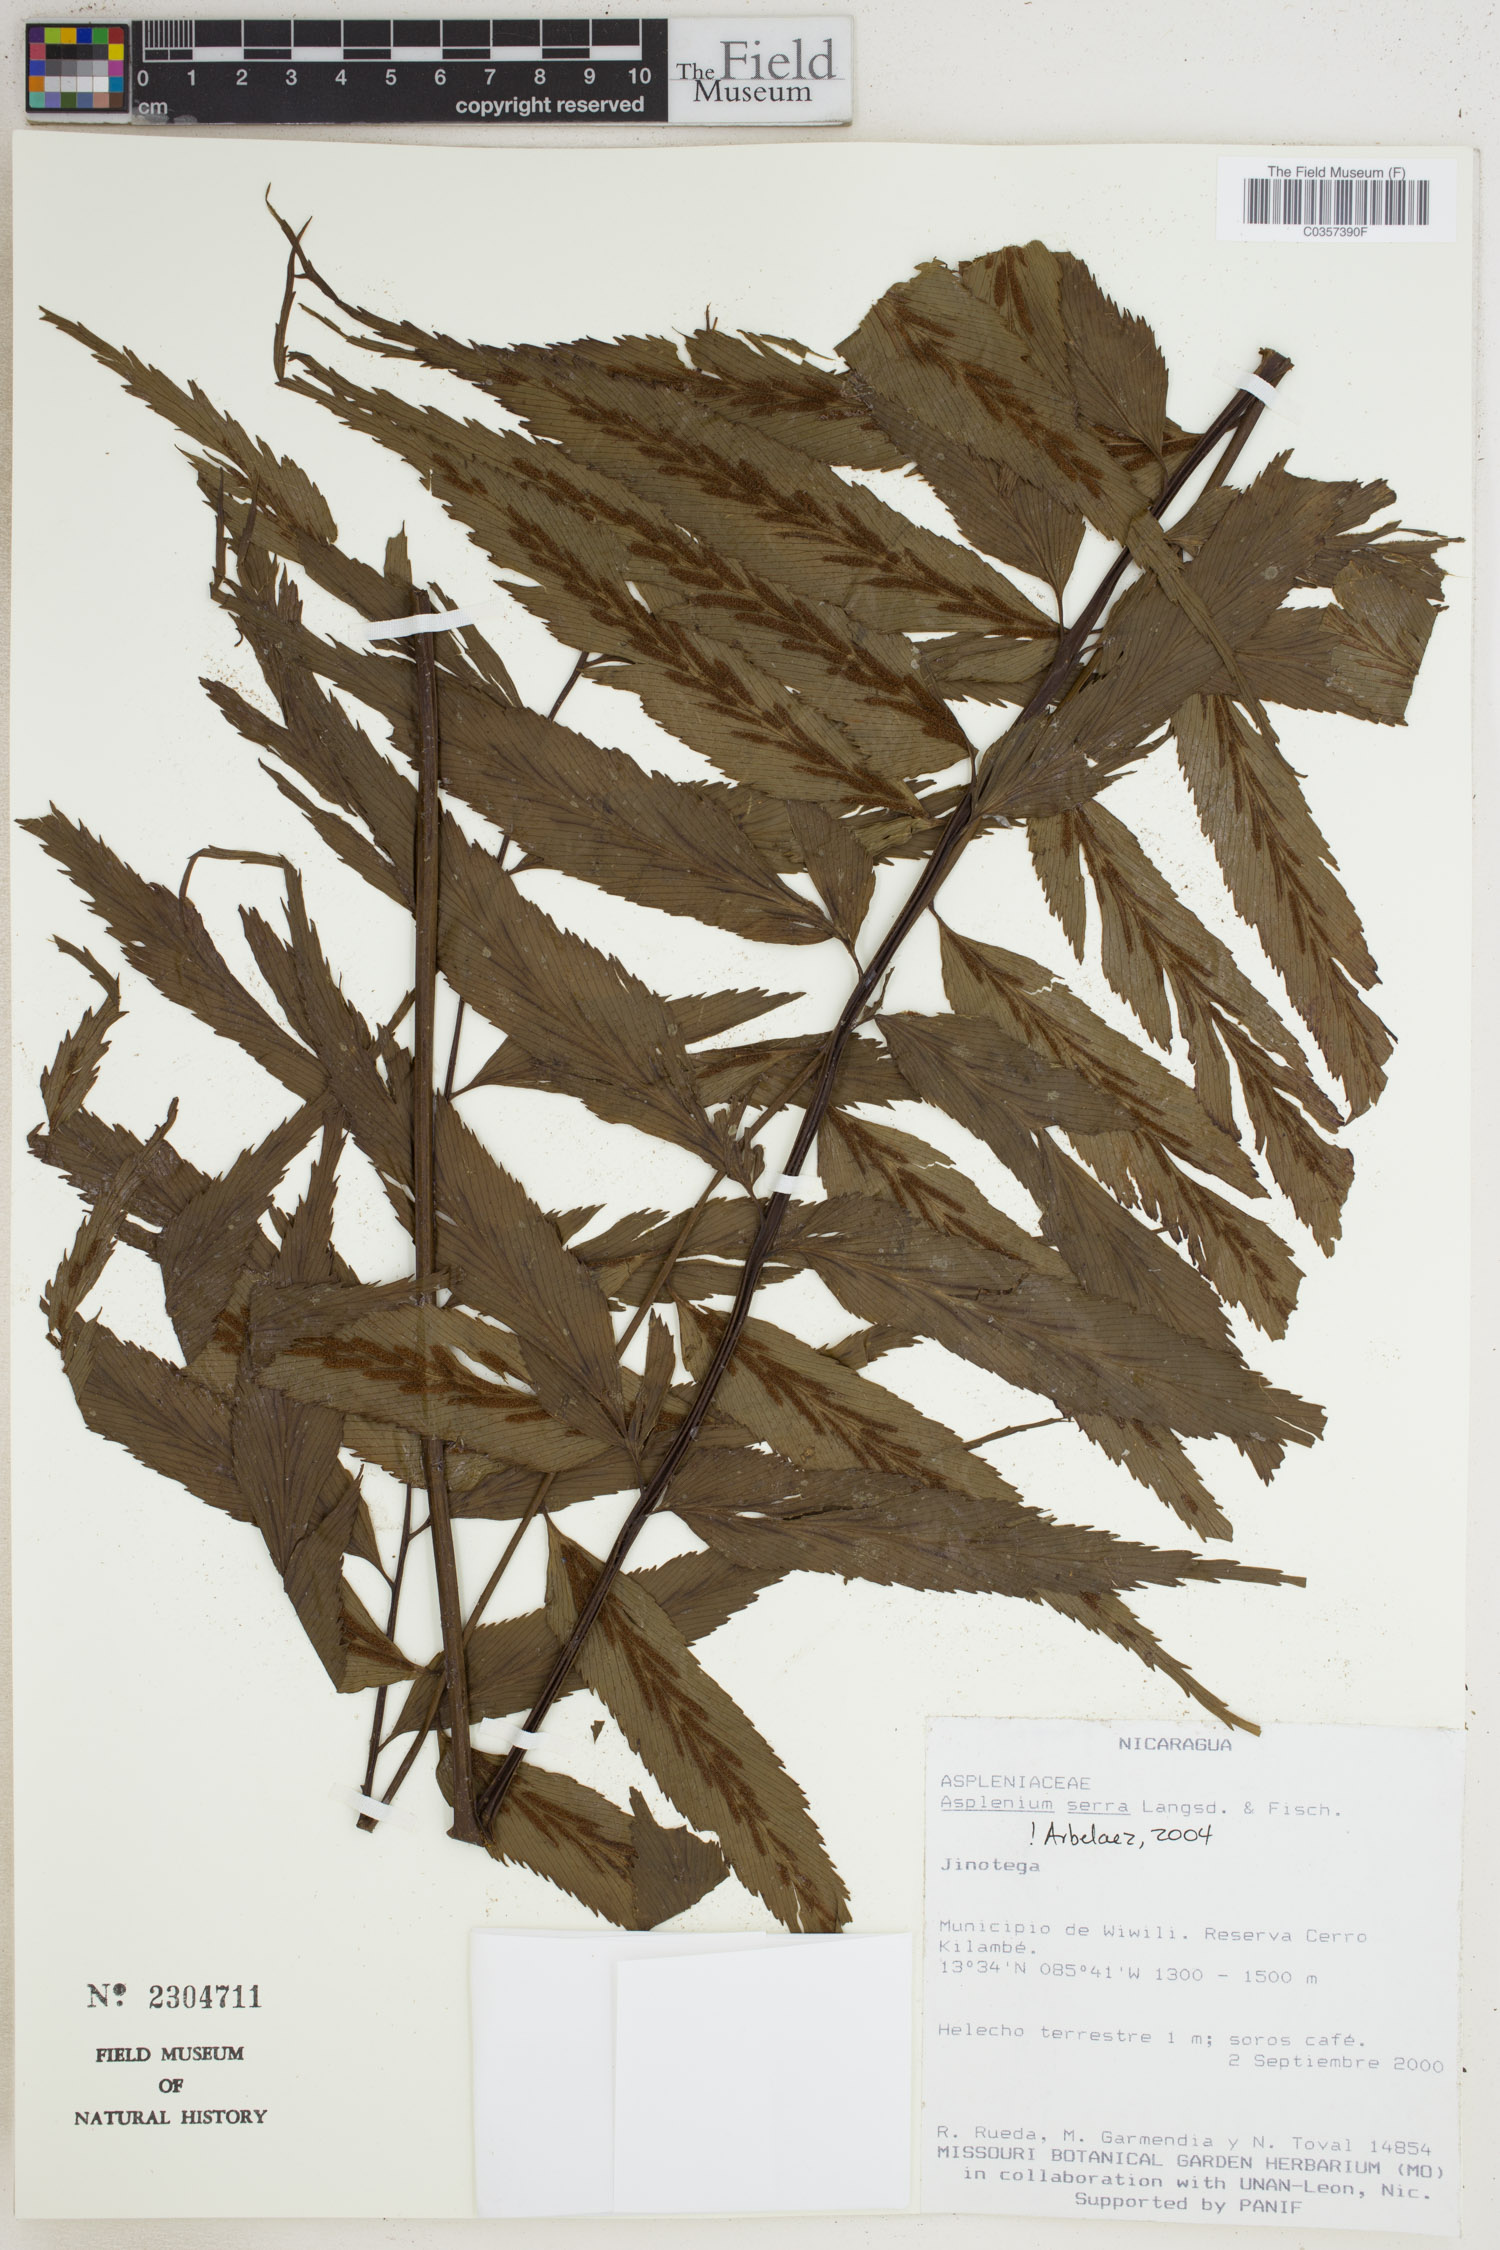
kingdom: Plantae
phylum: Tracheophyta
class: Polypodiopsida
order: Polypodiales
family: Aspleniaceae
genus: Asplenium
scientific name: Asplenium serra
